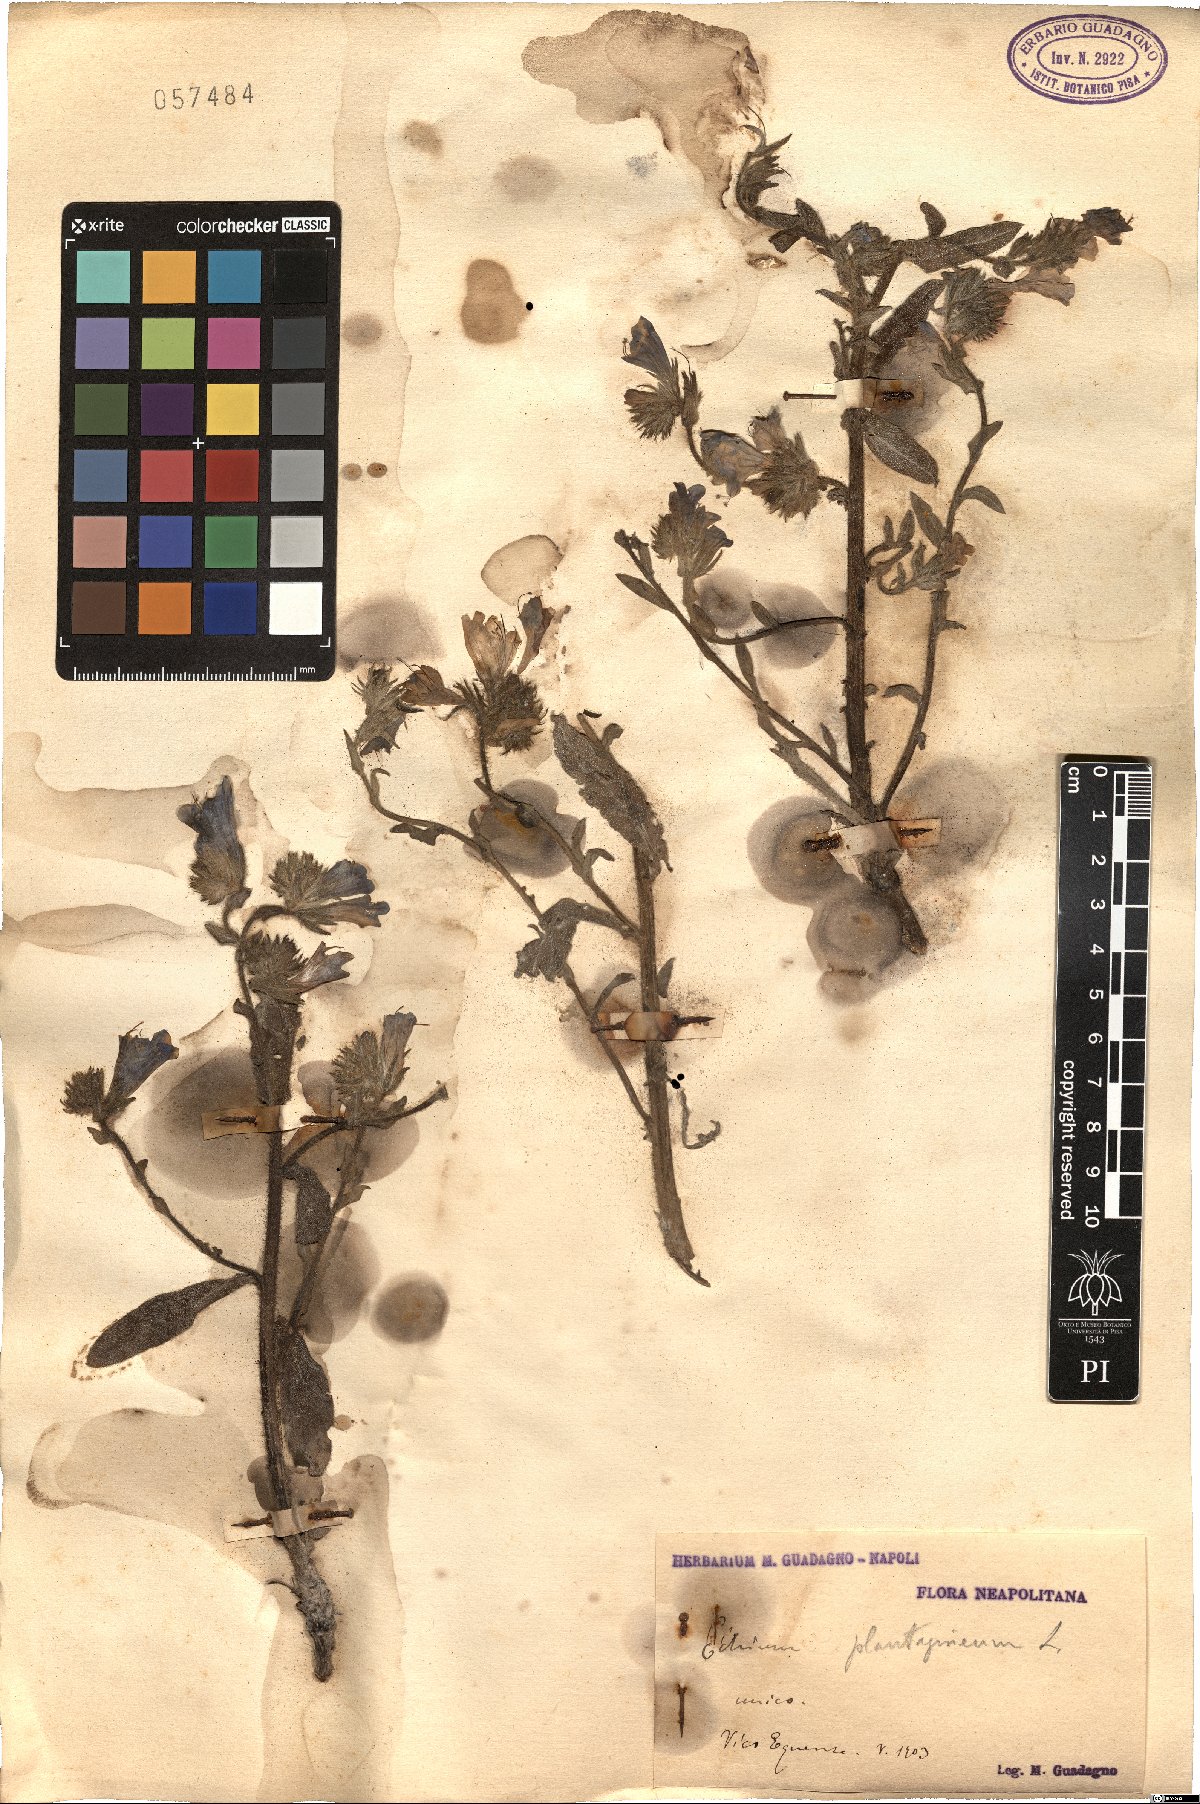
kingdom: Plantae
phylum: Tracheophyta
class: Magnoliopsida
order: Boraginales
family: Boraginaceae
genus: Echium
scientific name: Echium plantagineum
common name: Purple viper's-bugloss
